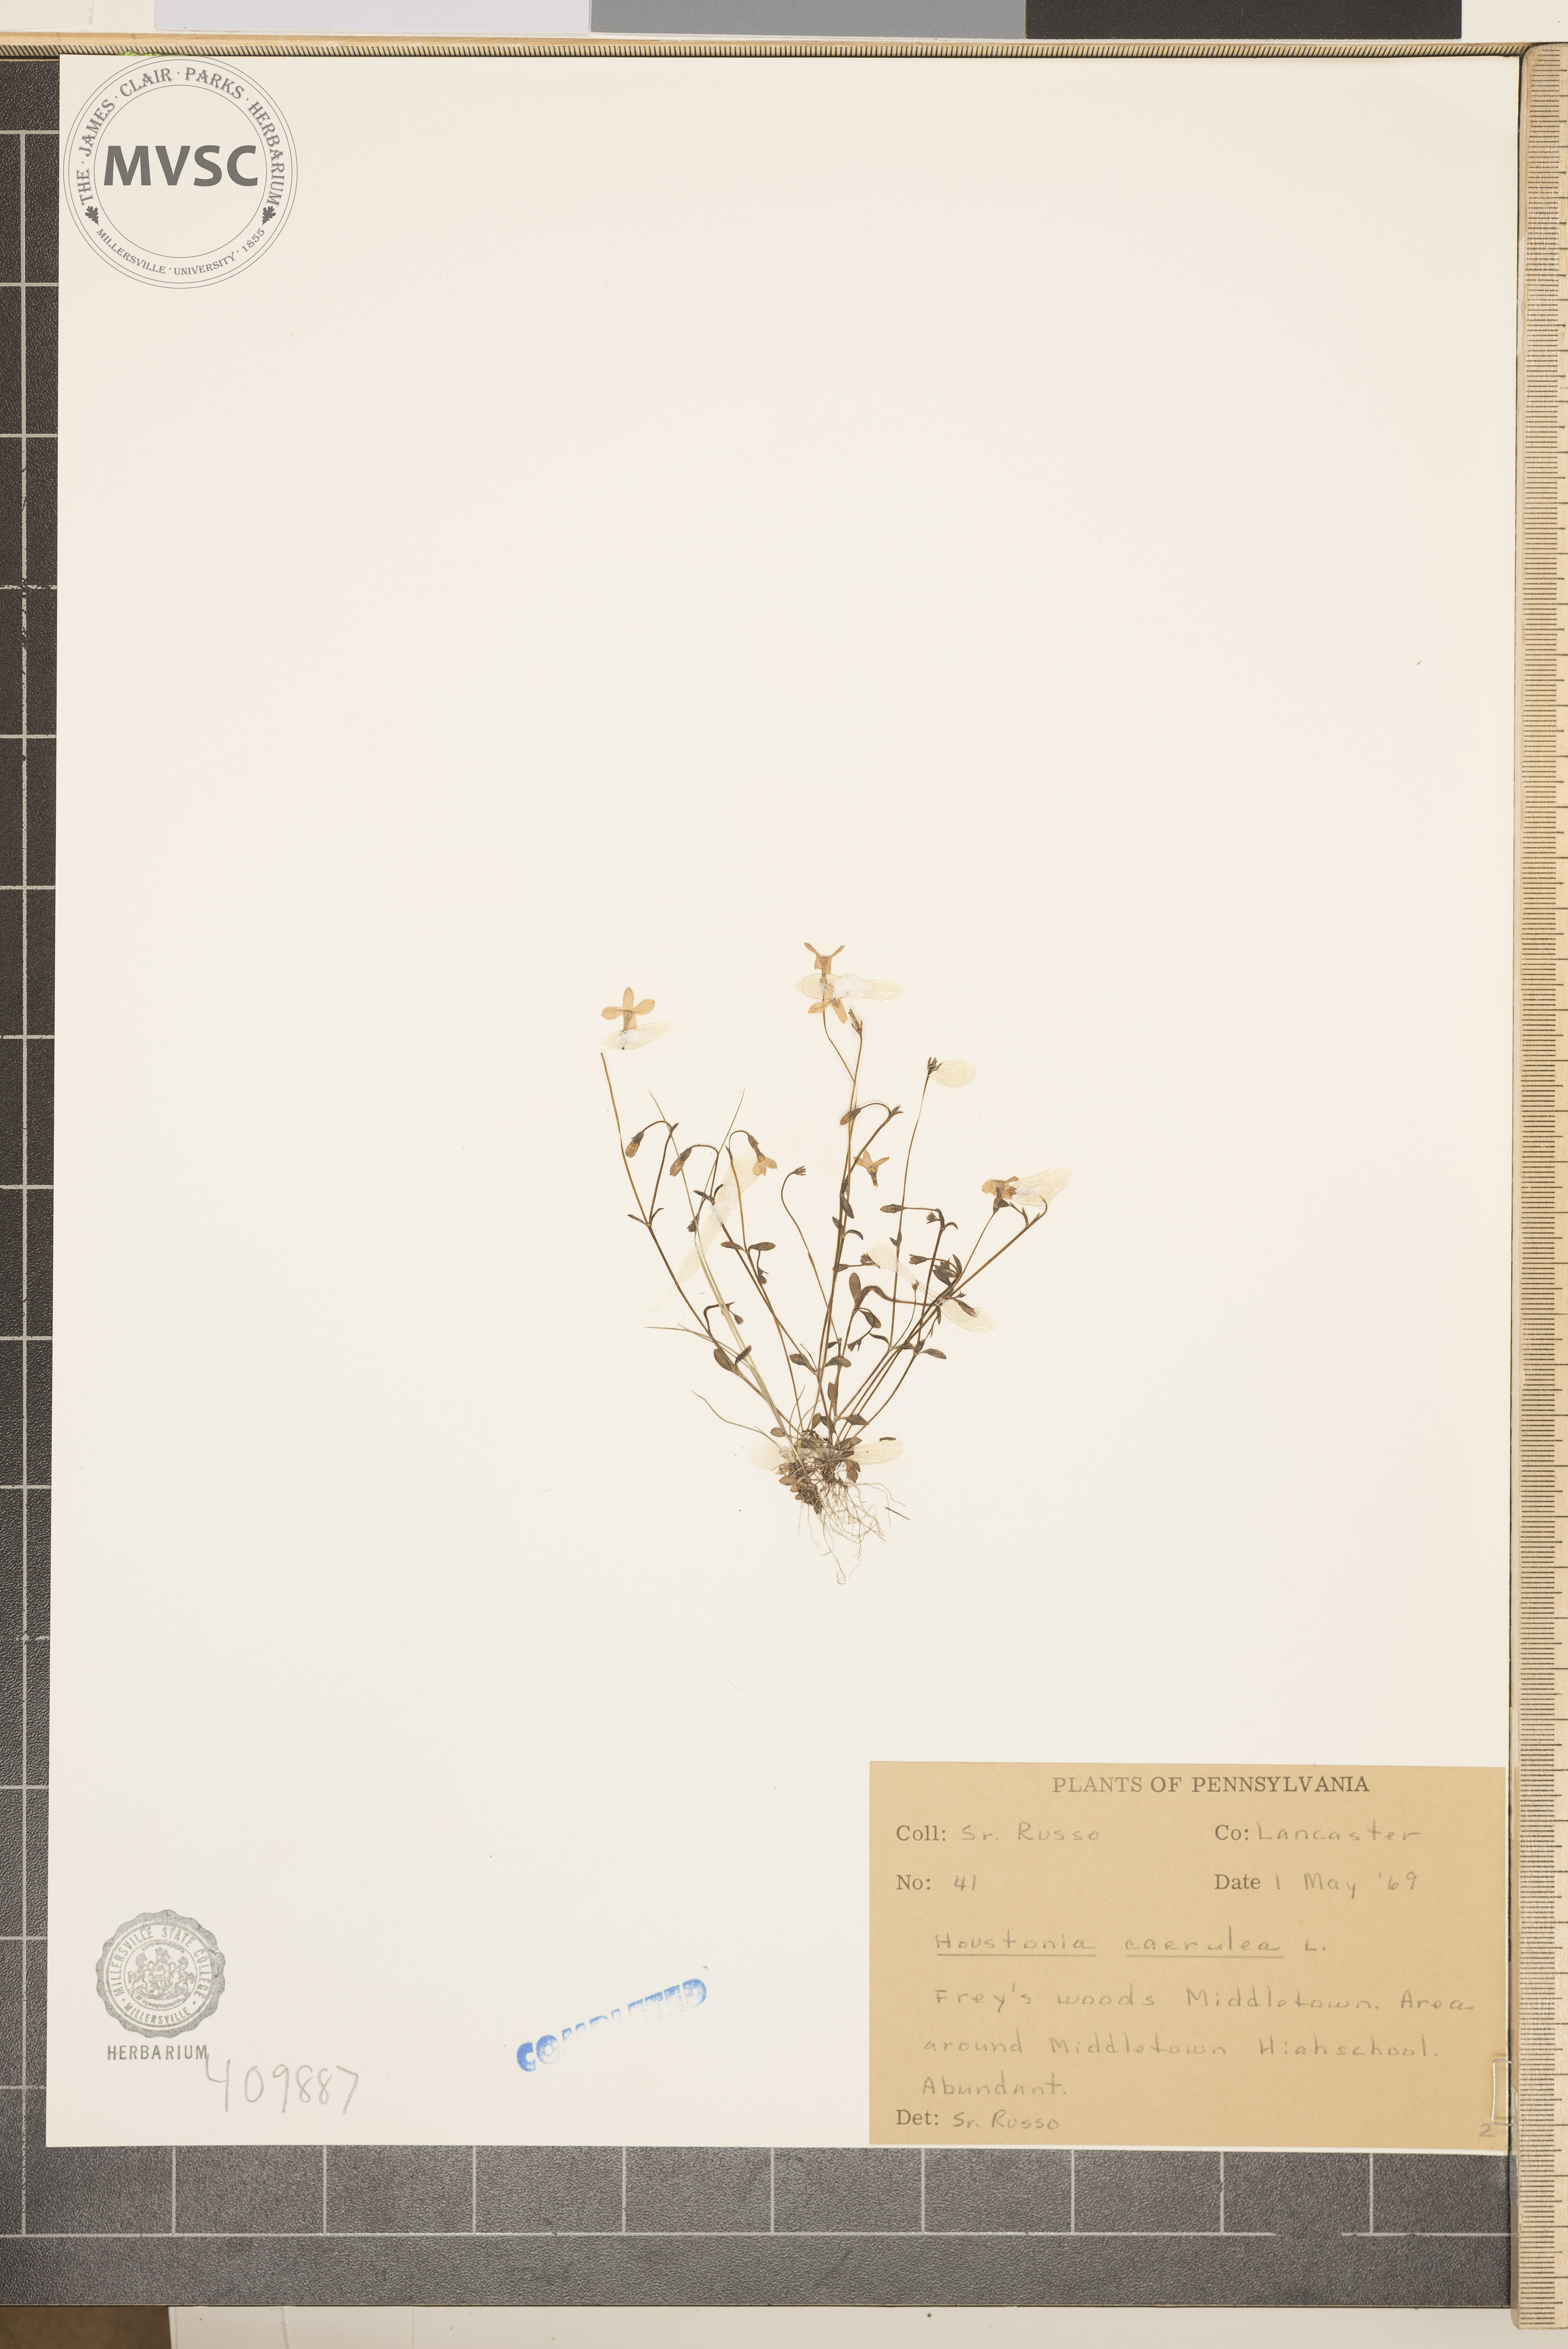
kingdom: Plantae
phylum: Tracheophyta
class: Magnoliopsida
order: Gentianales
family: Rubiaceae
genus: Houstonia
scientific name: Houstonia caerulea
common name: Bluets
